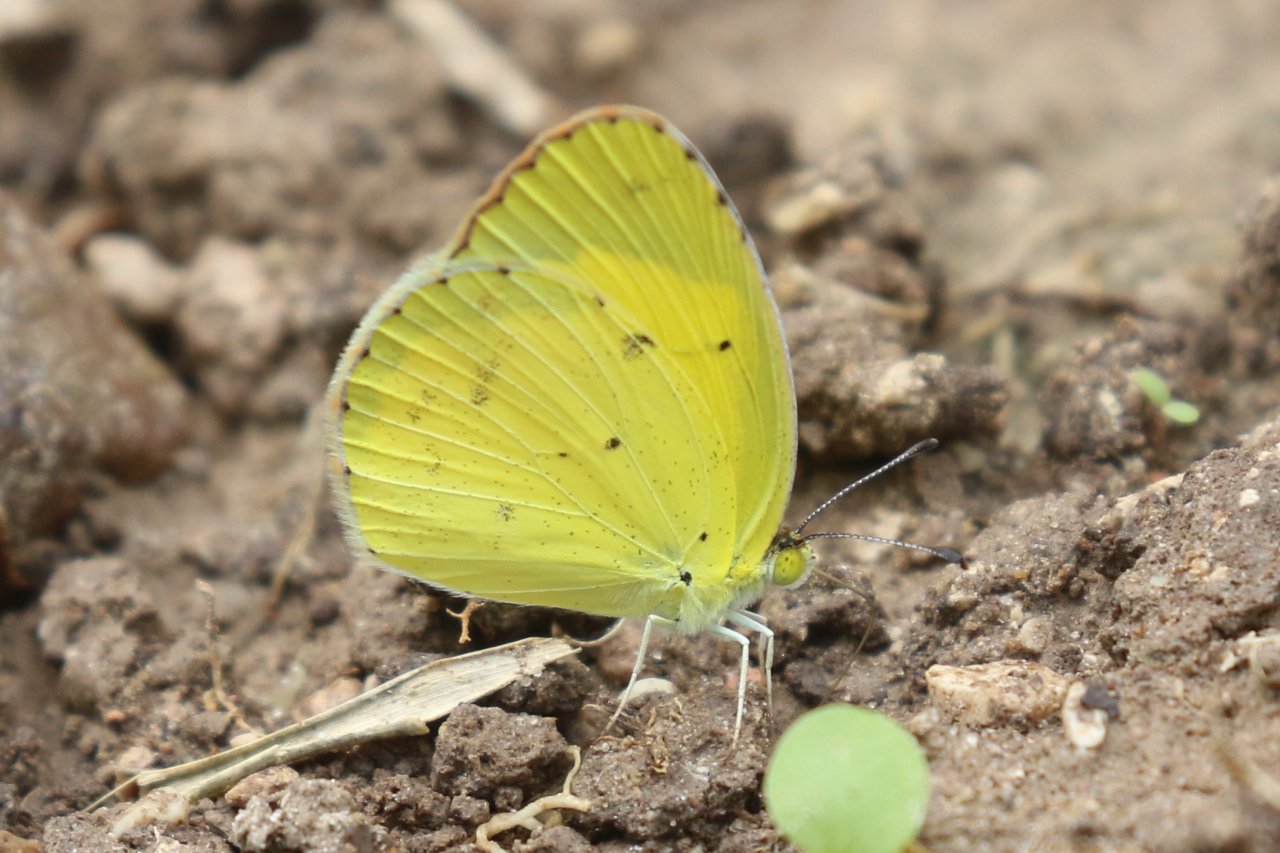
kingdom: Animalia
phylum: Arthropoda
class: Insecta
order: Lepidoptera
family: Pieridae
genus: Pyrisitia
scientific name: Pyrisitia lisa
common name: Little Yellow
